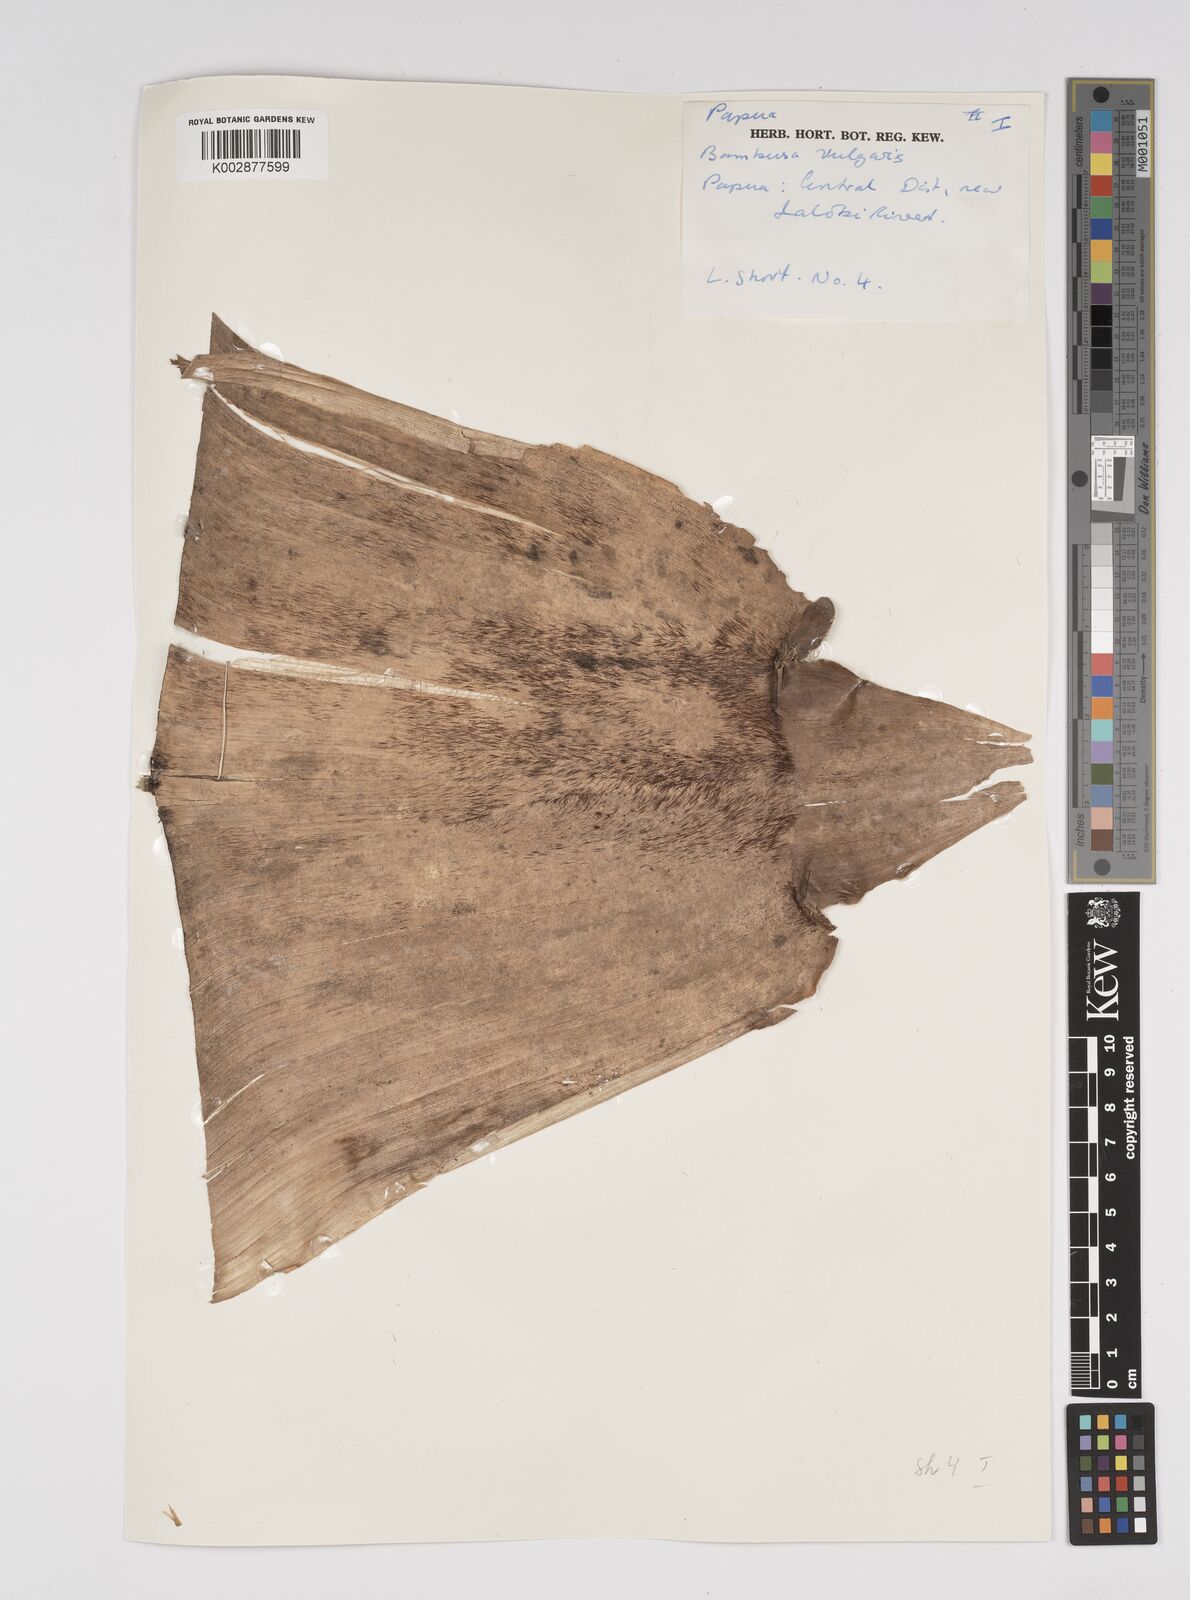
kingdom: Plantae
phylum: Tracheophyta
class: Liliopsida
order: Poales
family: Poaceae
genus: Bambusa
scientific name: Bambusa balcooa
